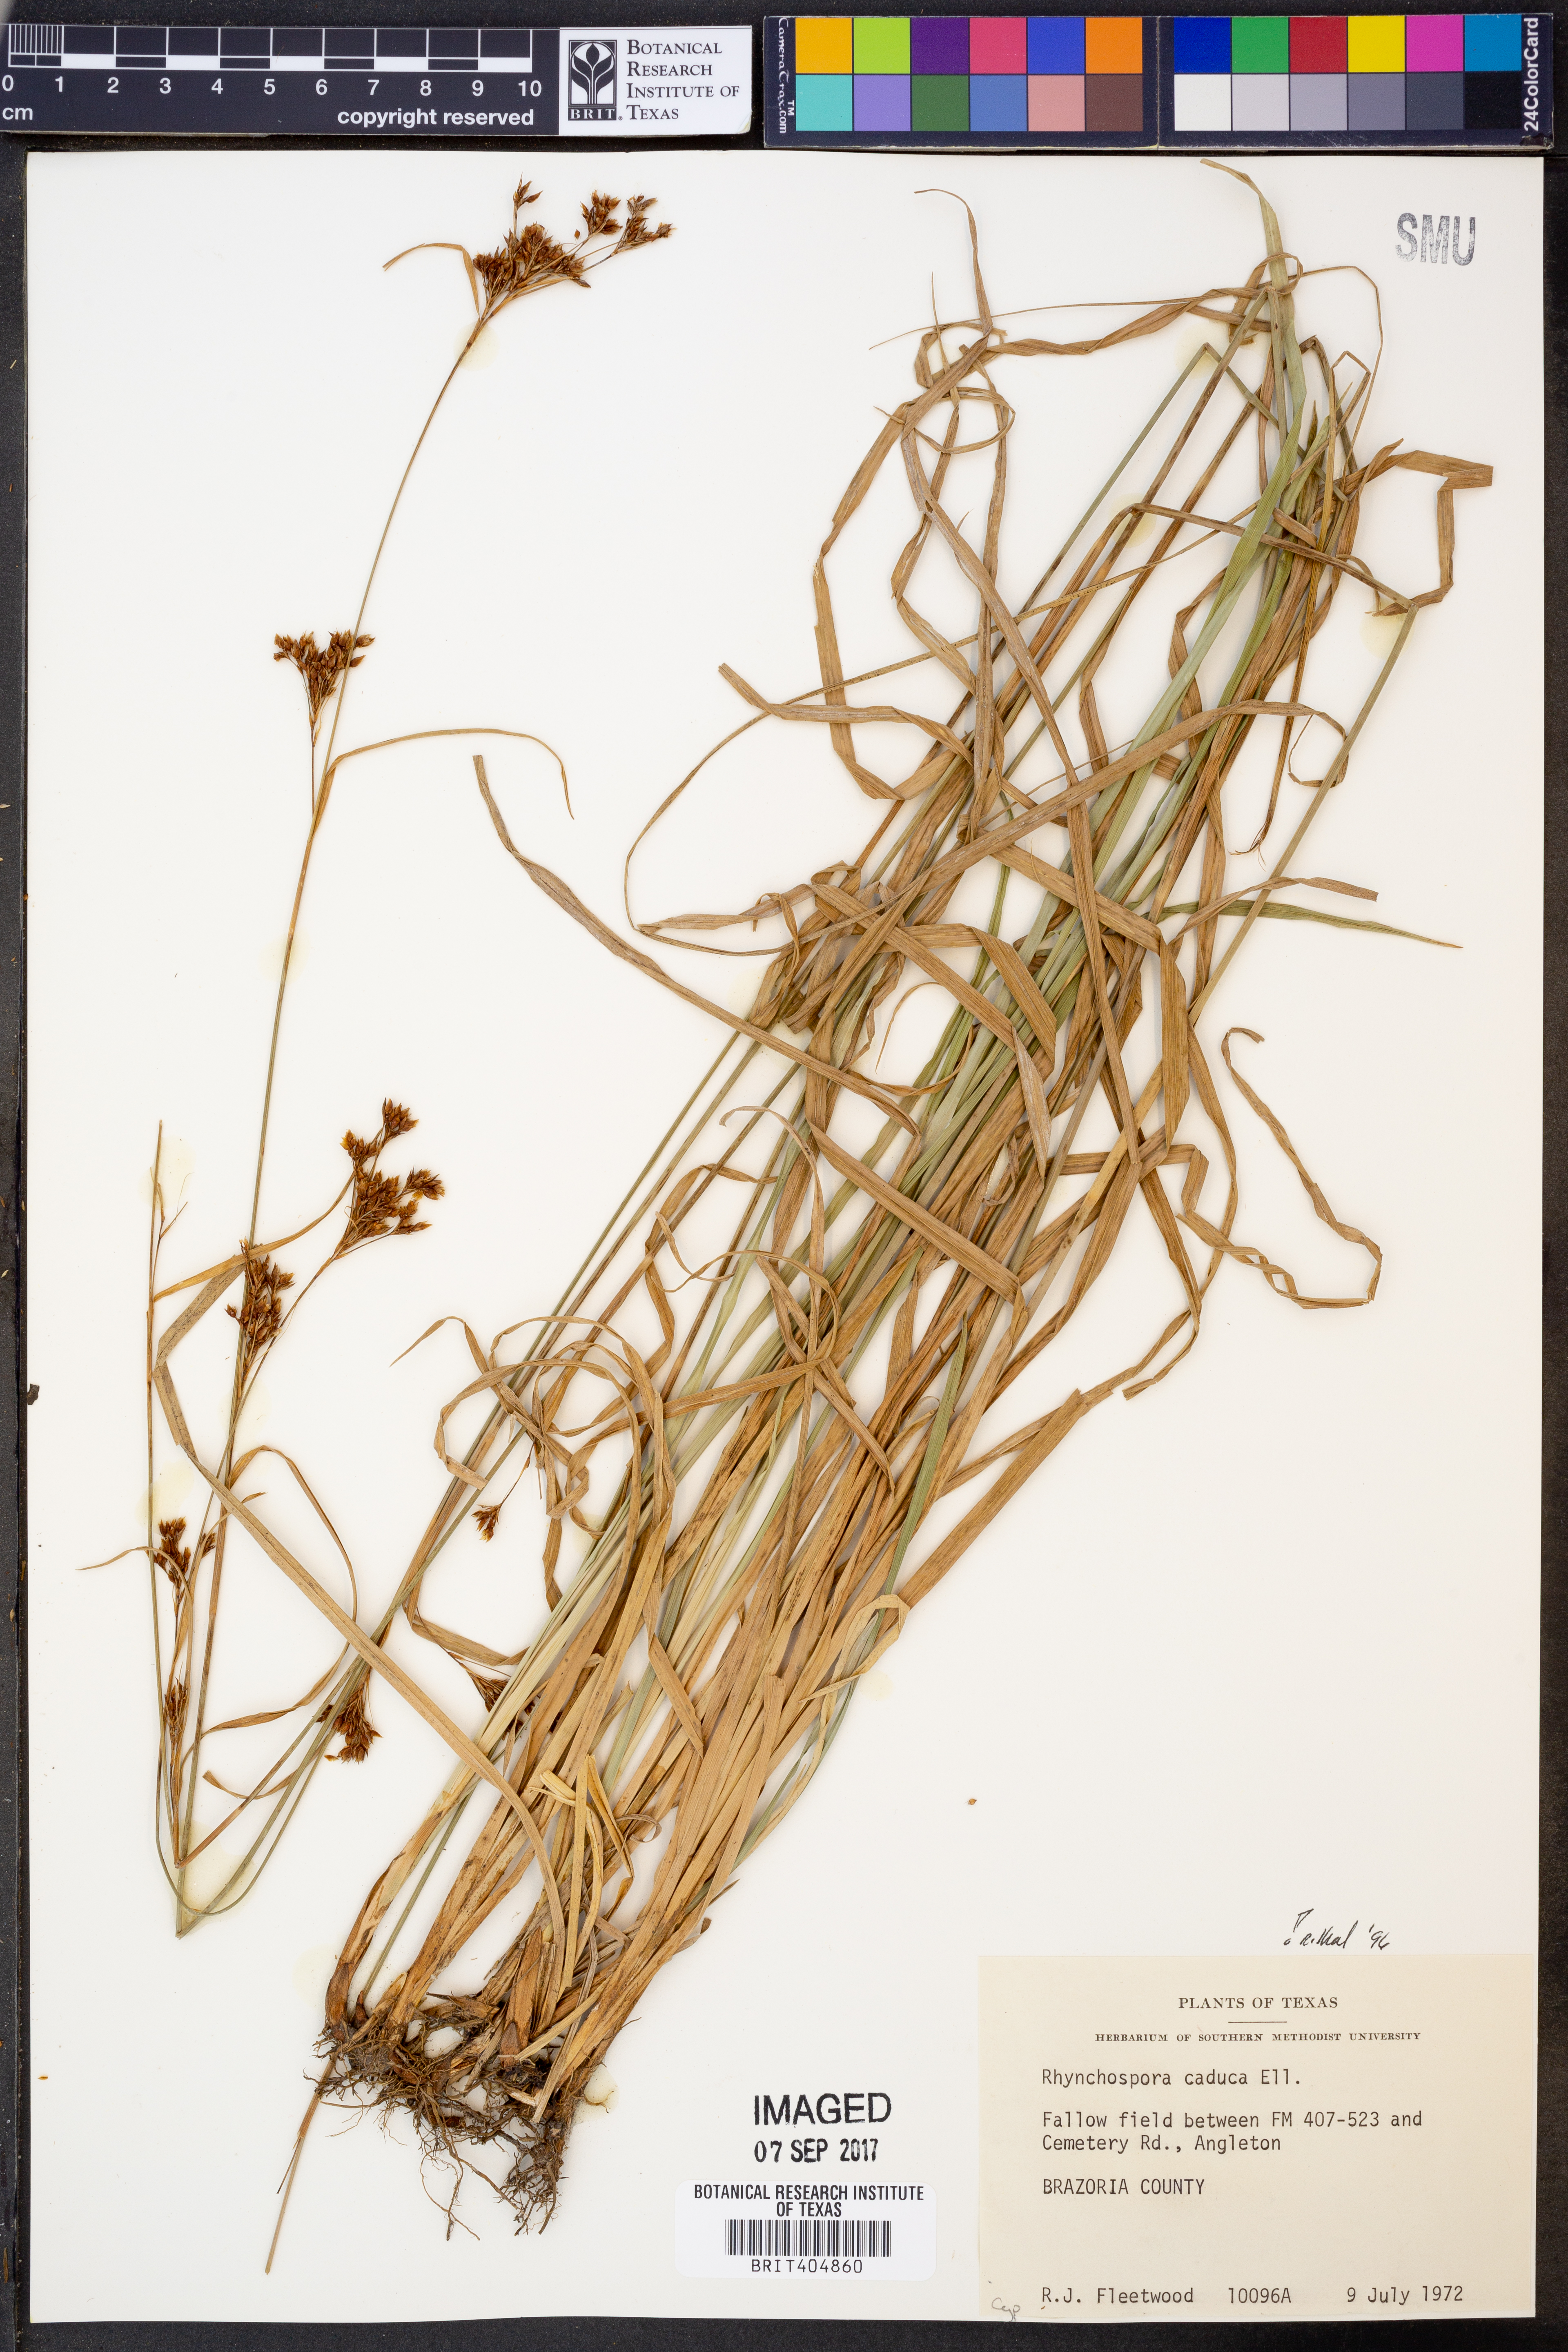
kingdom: Plantae
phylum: Tracheophyta
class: Liliopsida
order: Poales
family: Cyperaceae
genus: Rhynchospora
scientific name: Rhynchospora caduca
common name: Anglestem beaksedge
